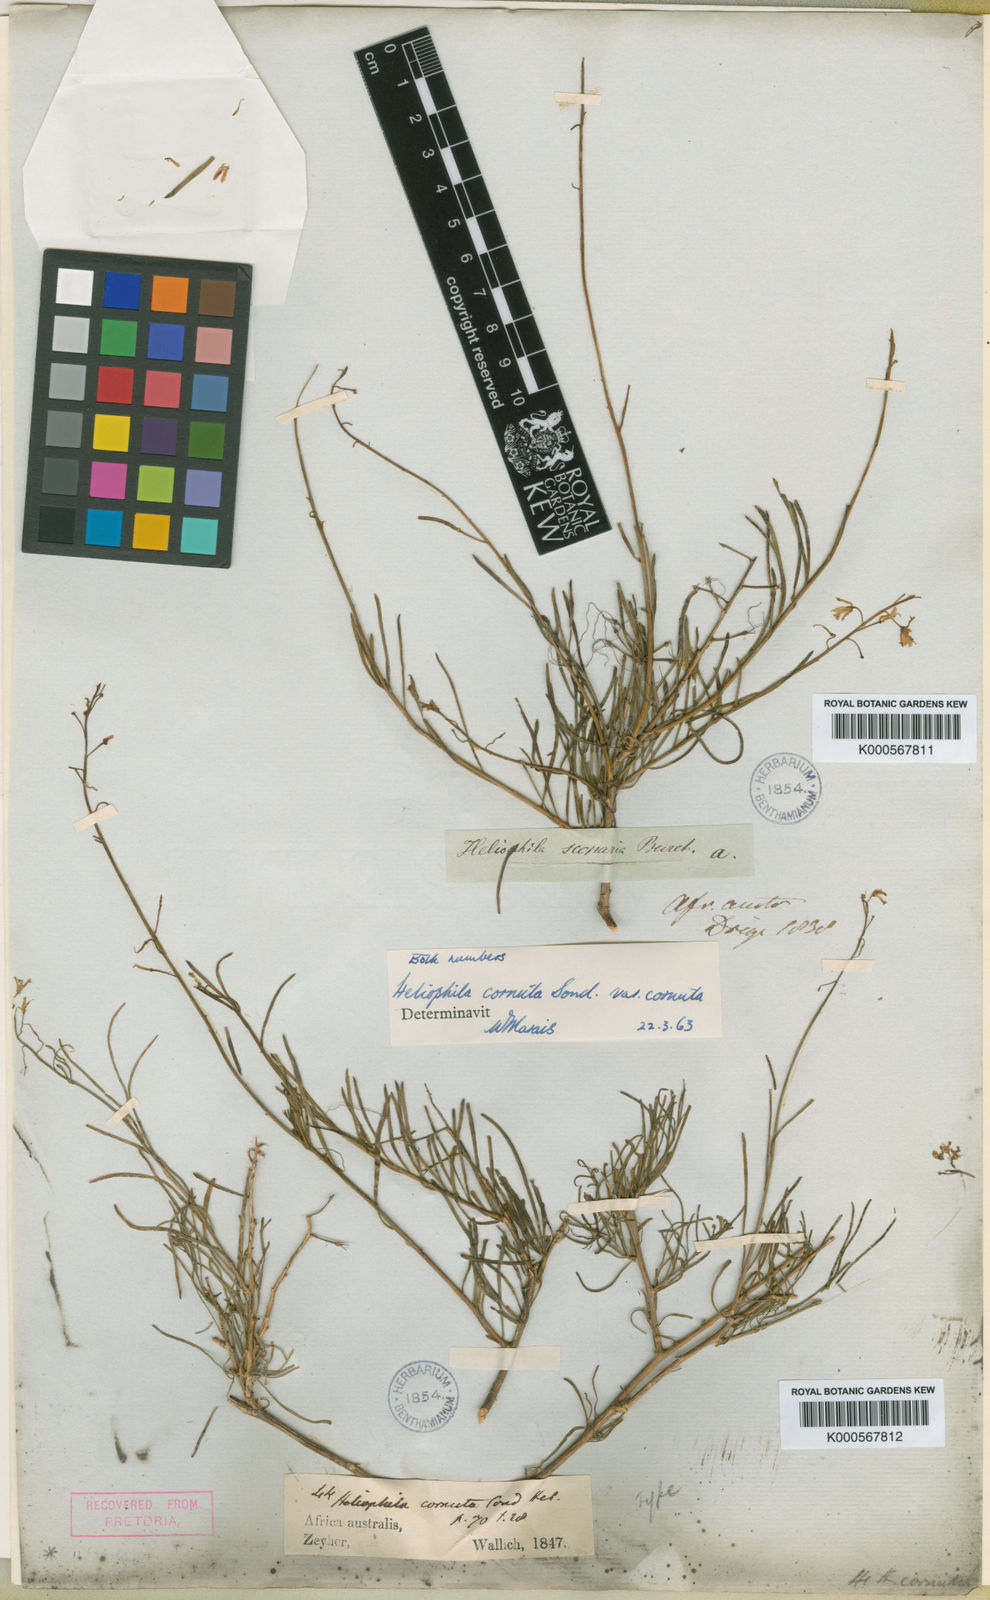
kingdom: Plantae
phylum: Tracheophyta
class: Magnoliopsida
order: Brassicales
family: Brassicaceae
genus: Heliophila
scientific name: Heliophila cornuta
